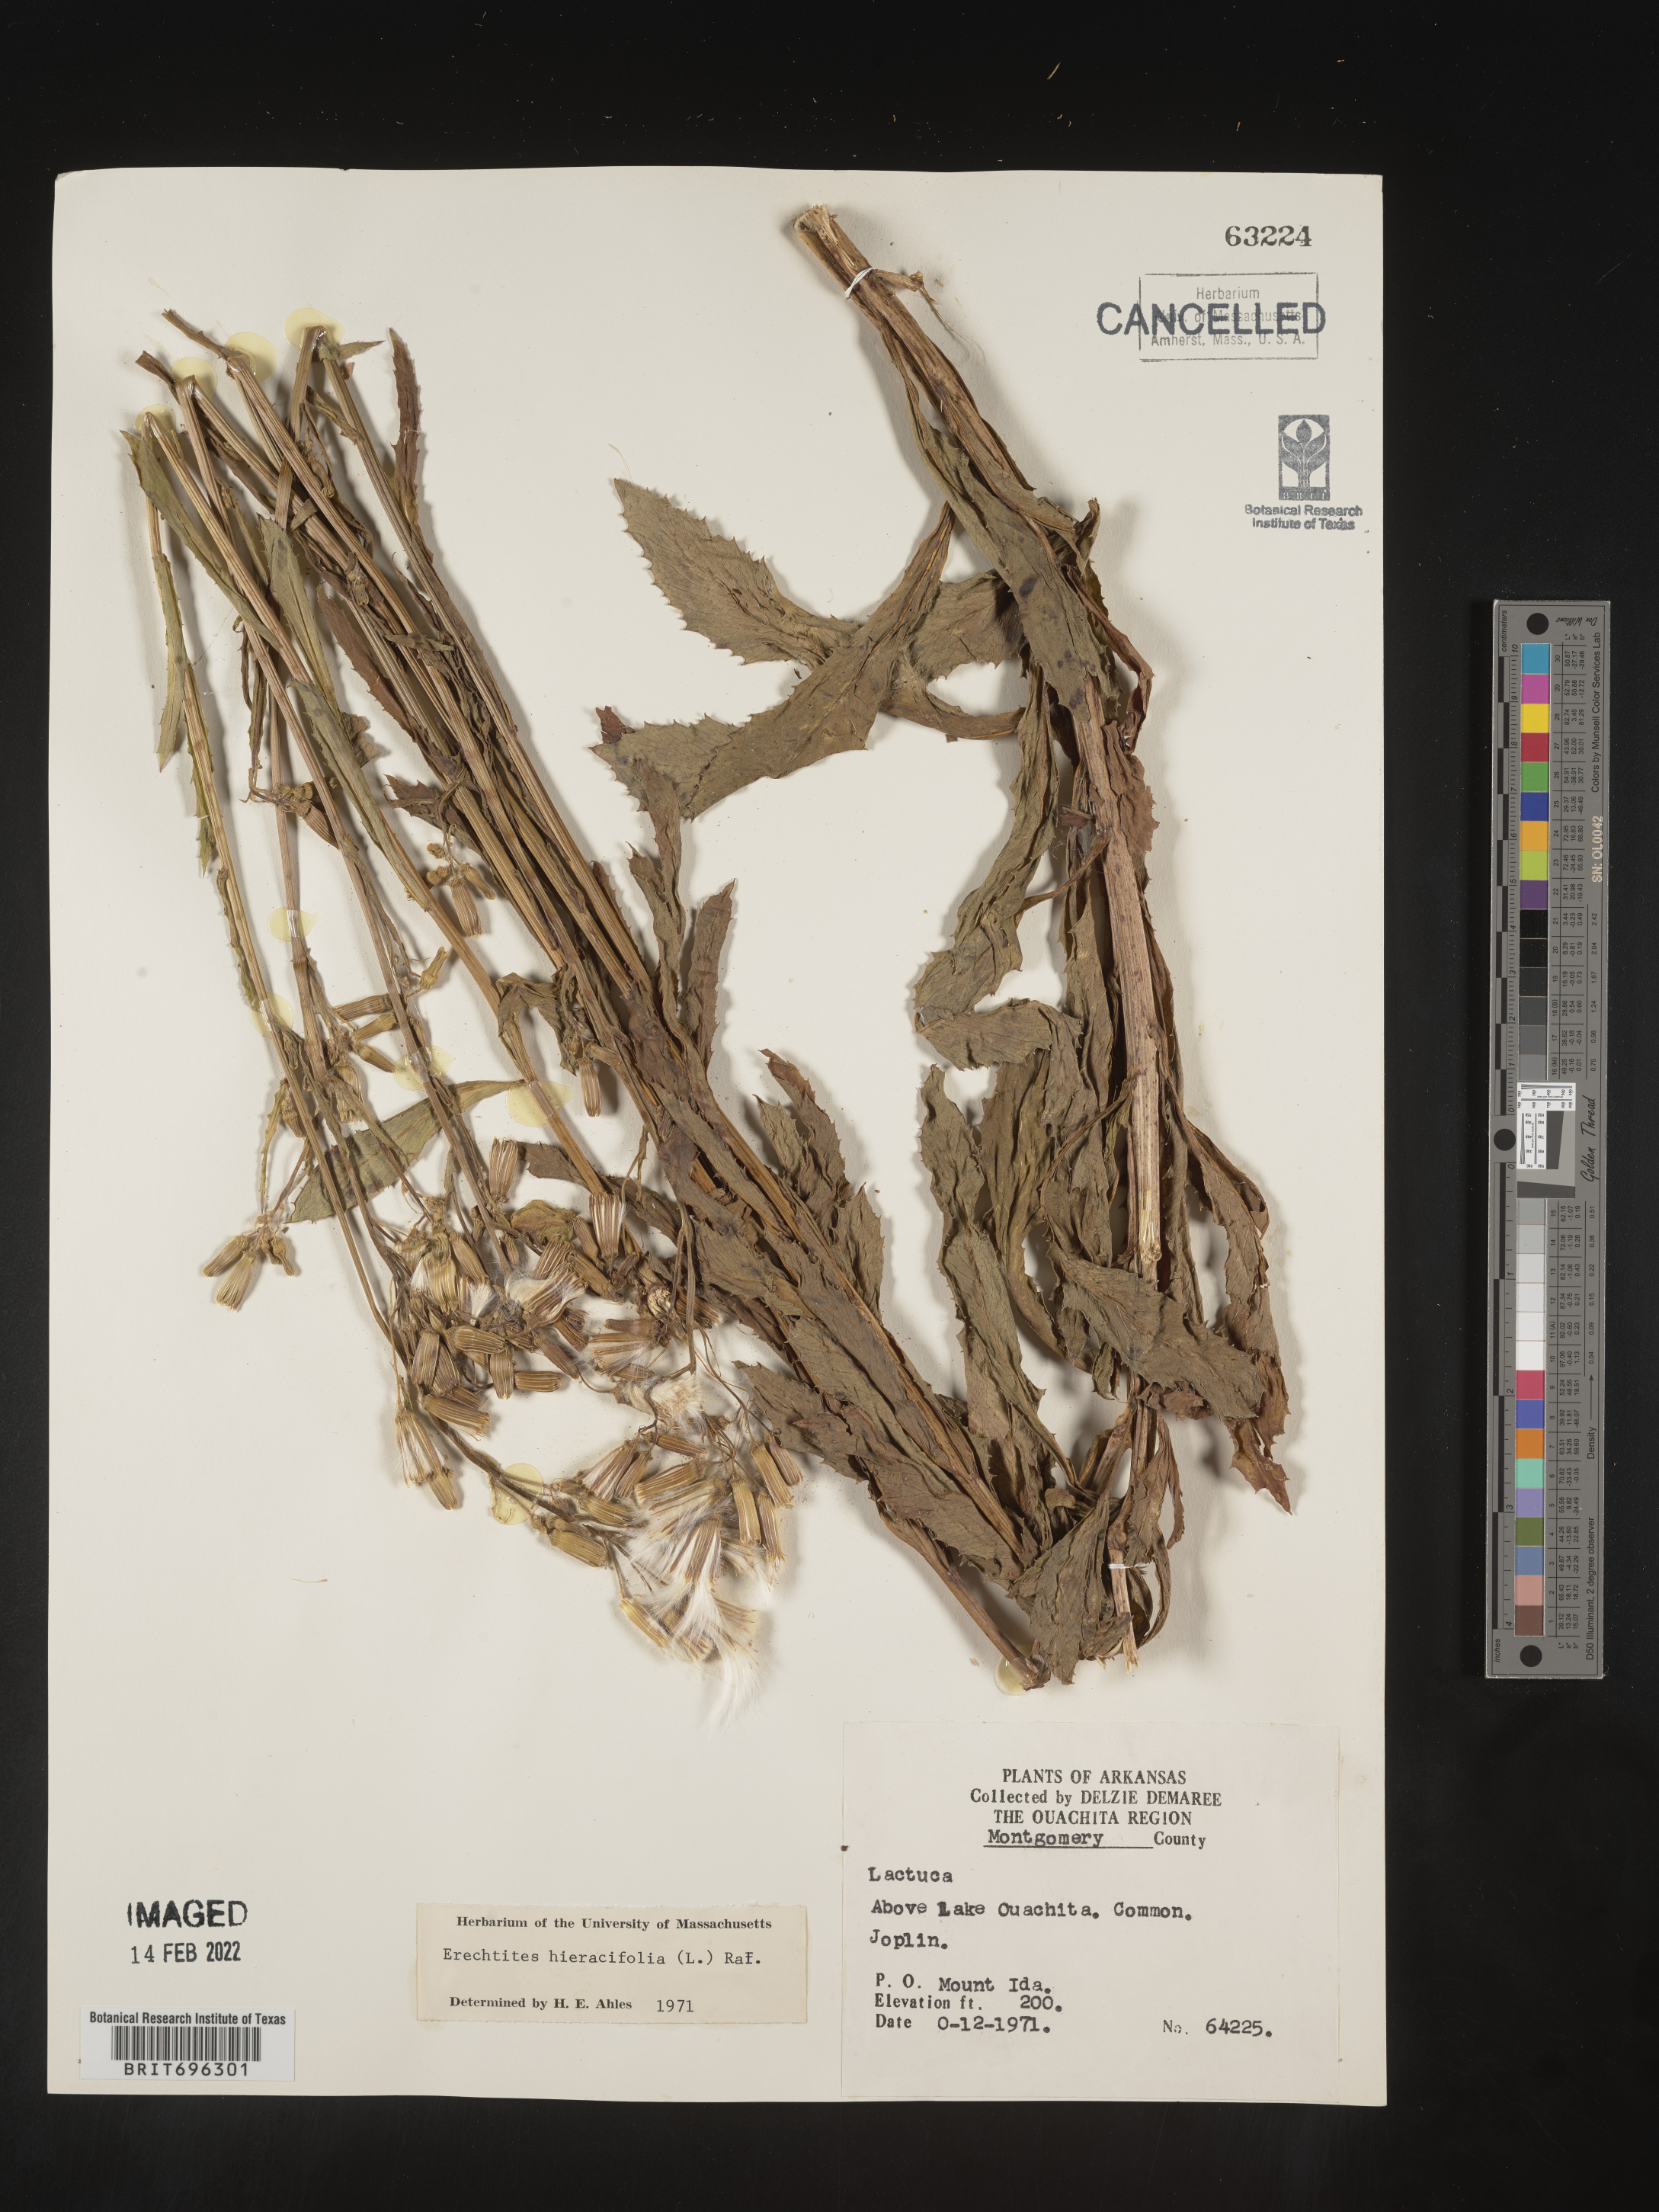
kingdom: Plantae
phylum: Tracheophyta
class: Magnoliopsida
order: Asterales
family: Asteraceae
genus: Erechtites
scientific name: Erechtites hieraciifolius
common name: American burnweed
